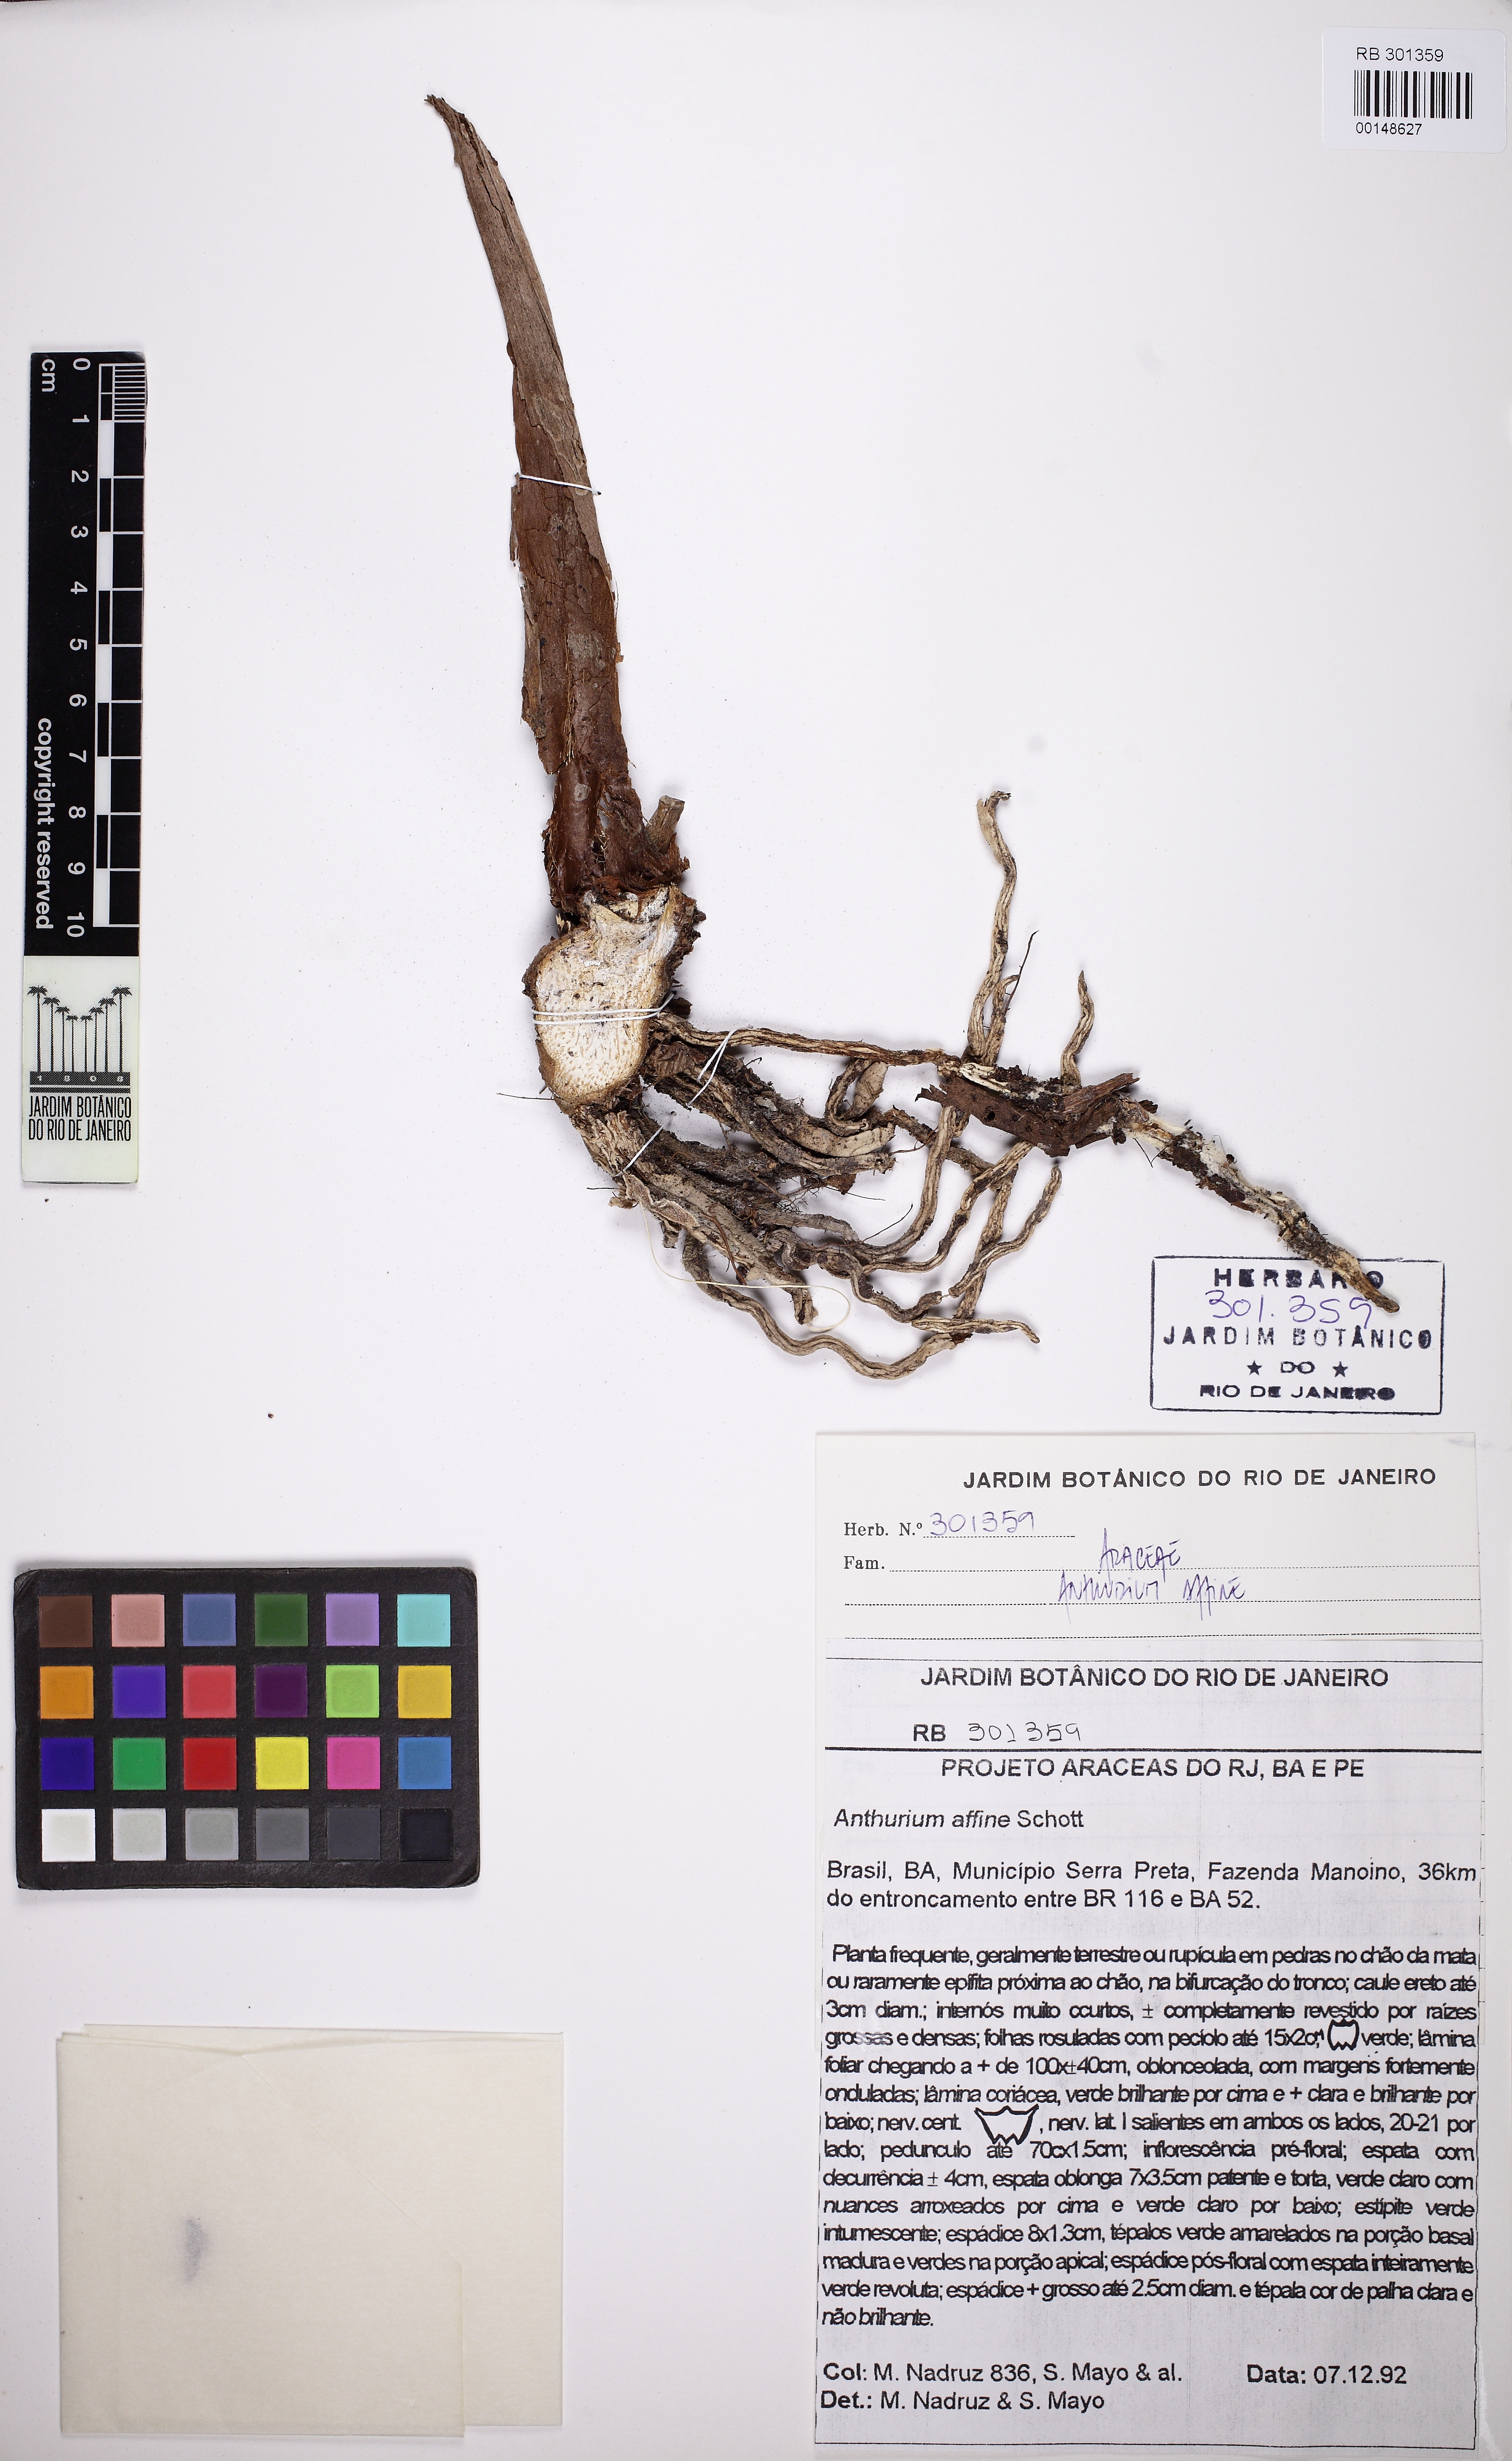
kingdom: Plantae
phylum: Tracheophyta
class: Liliopsida
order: Alismatales
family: Araceae
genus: Anthurium
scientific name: Anthurium affine
